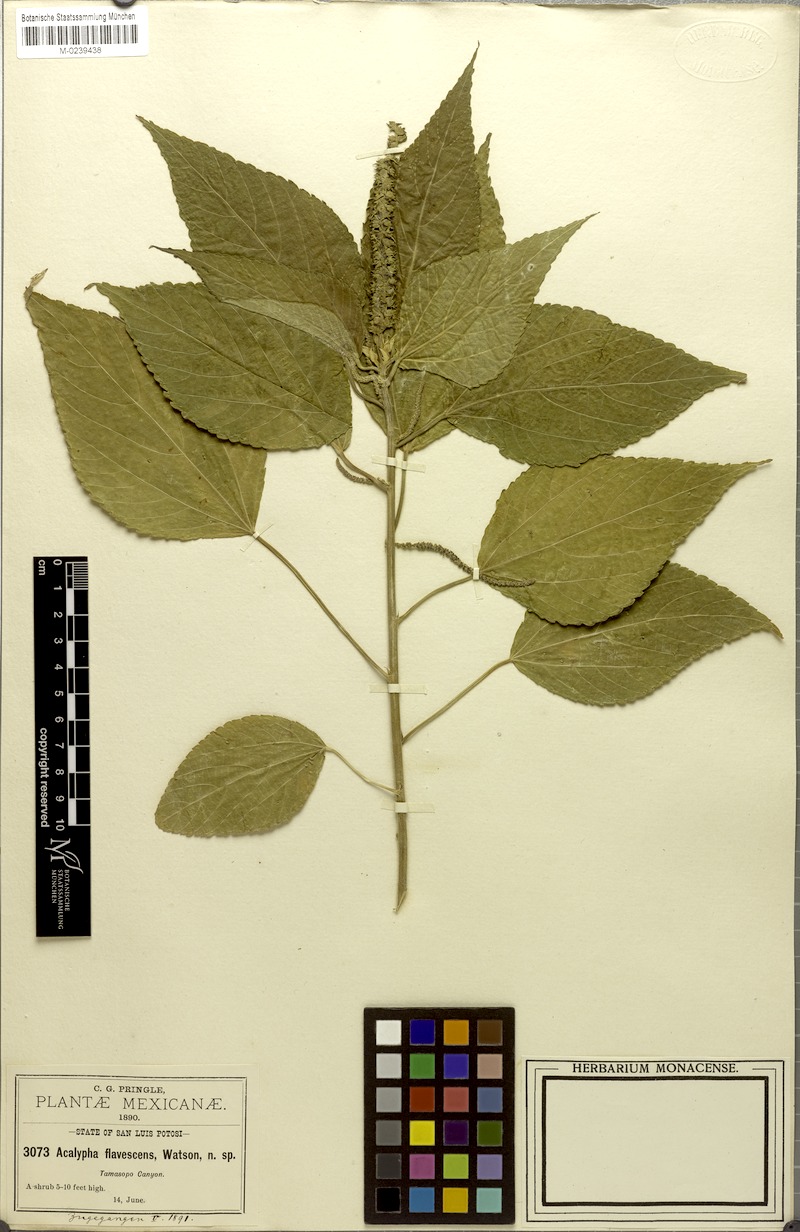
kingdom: Plantae
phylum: Tracheophyta
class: Magnoliopsida
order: Malpighiales
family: Euphorbiaceae
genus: Acalypha
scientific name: Acalypha flavescens
